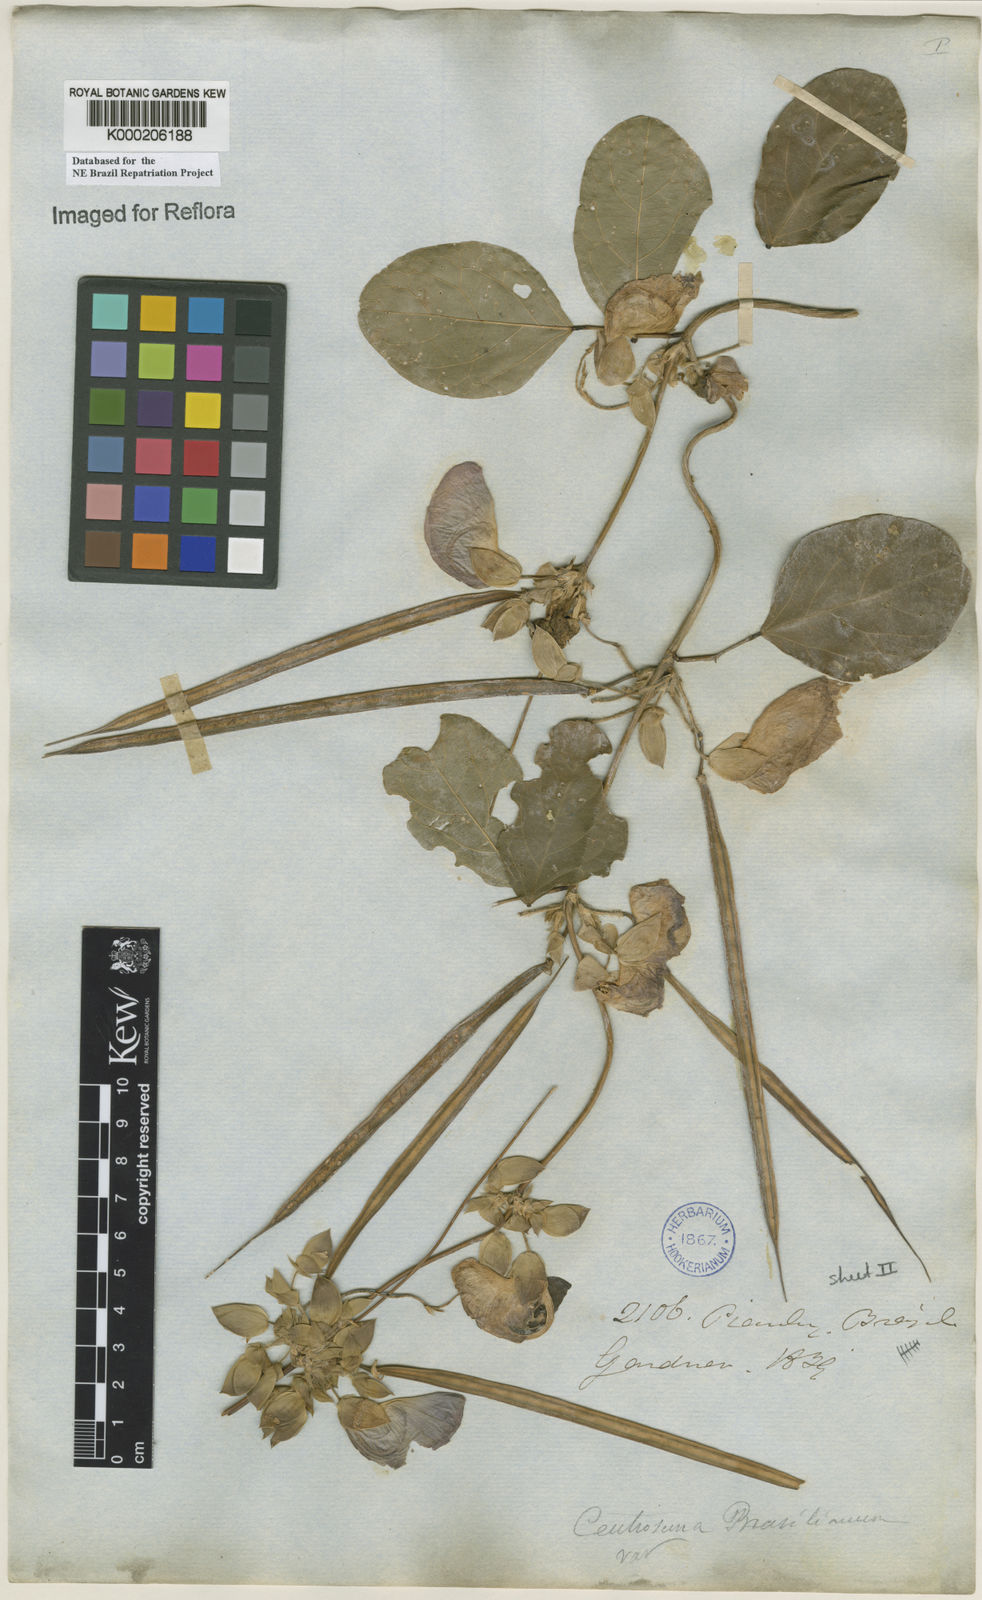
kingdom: Plantae
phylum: Tracheophyta
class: Magnoliopsida
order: Fabales
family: Fabaceae
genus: Centrosema
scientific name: Centrosema brasilianum
